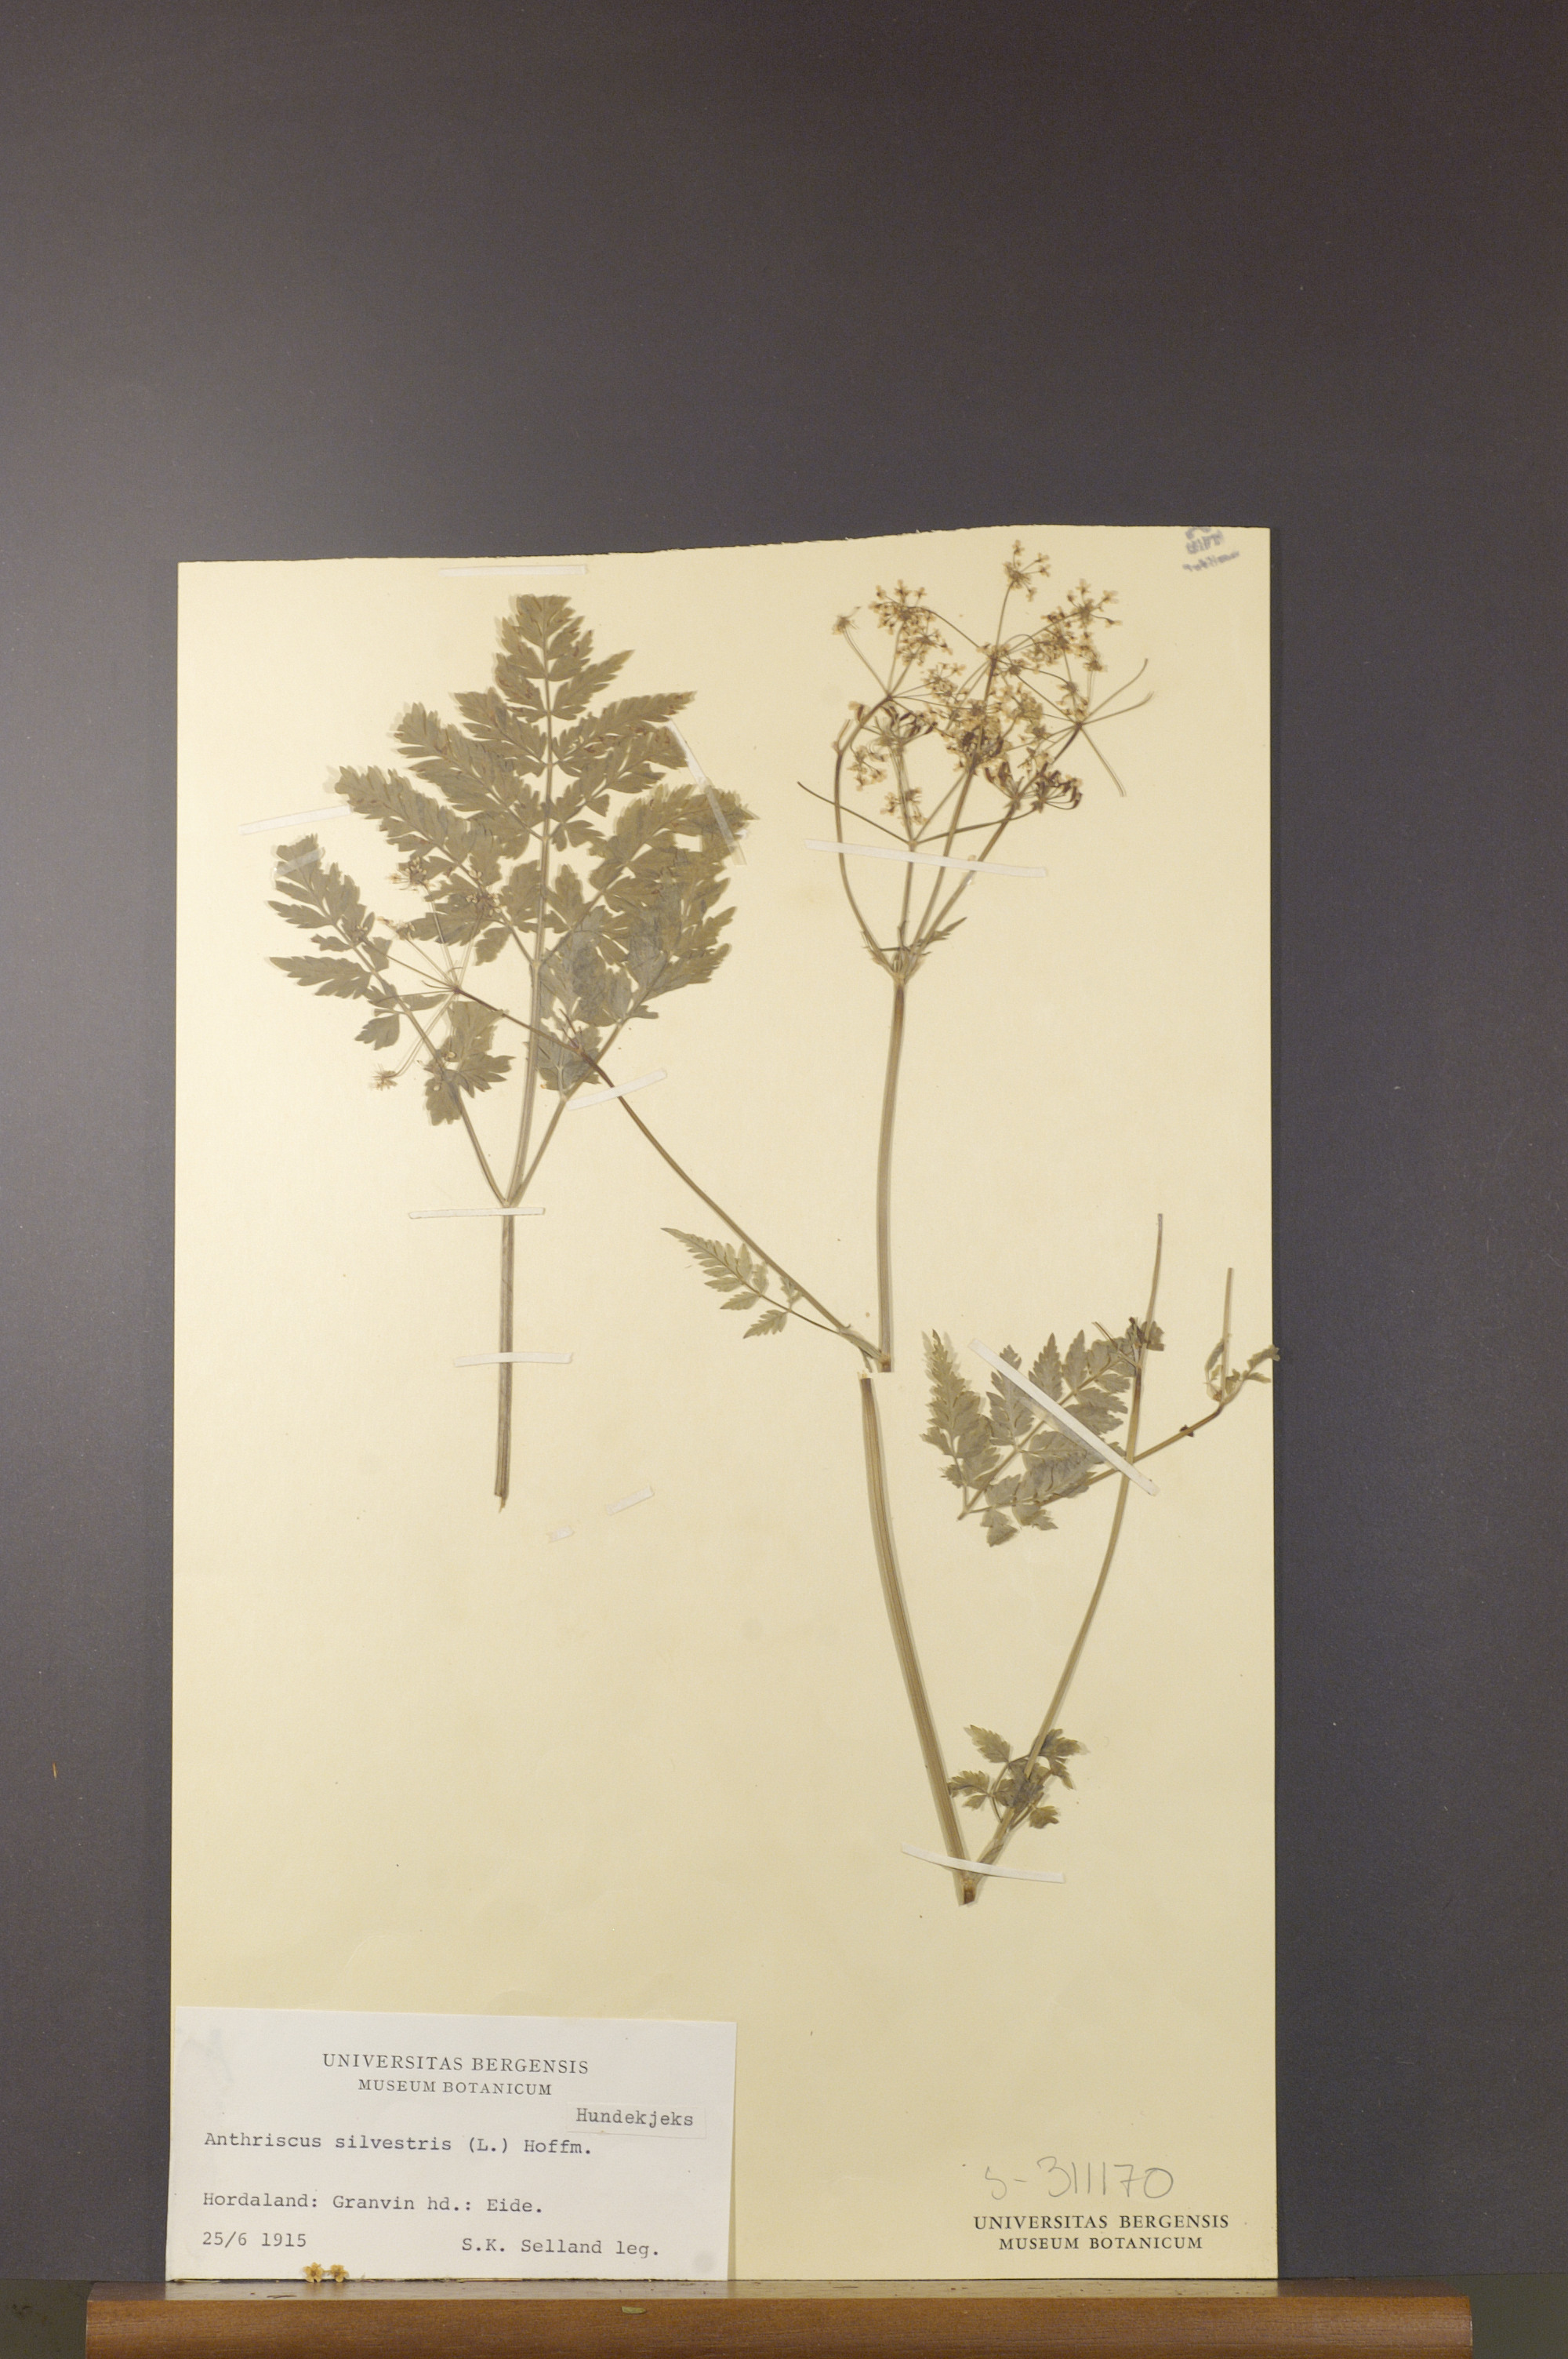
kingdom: Plantae
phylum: Tracheophyta
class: Magnoliopsida
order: Apiales
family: Apiaceae
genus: Anthriscus
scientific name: Anthriscus sylvestris
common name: Cow parsley
